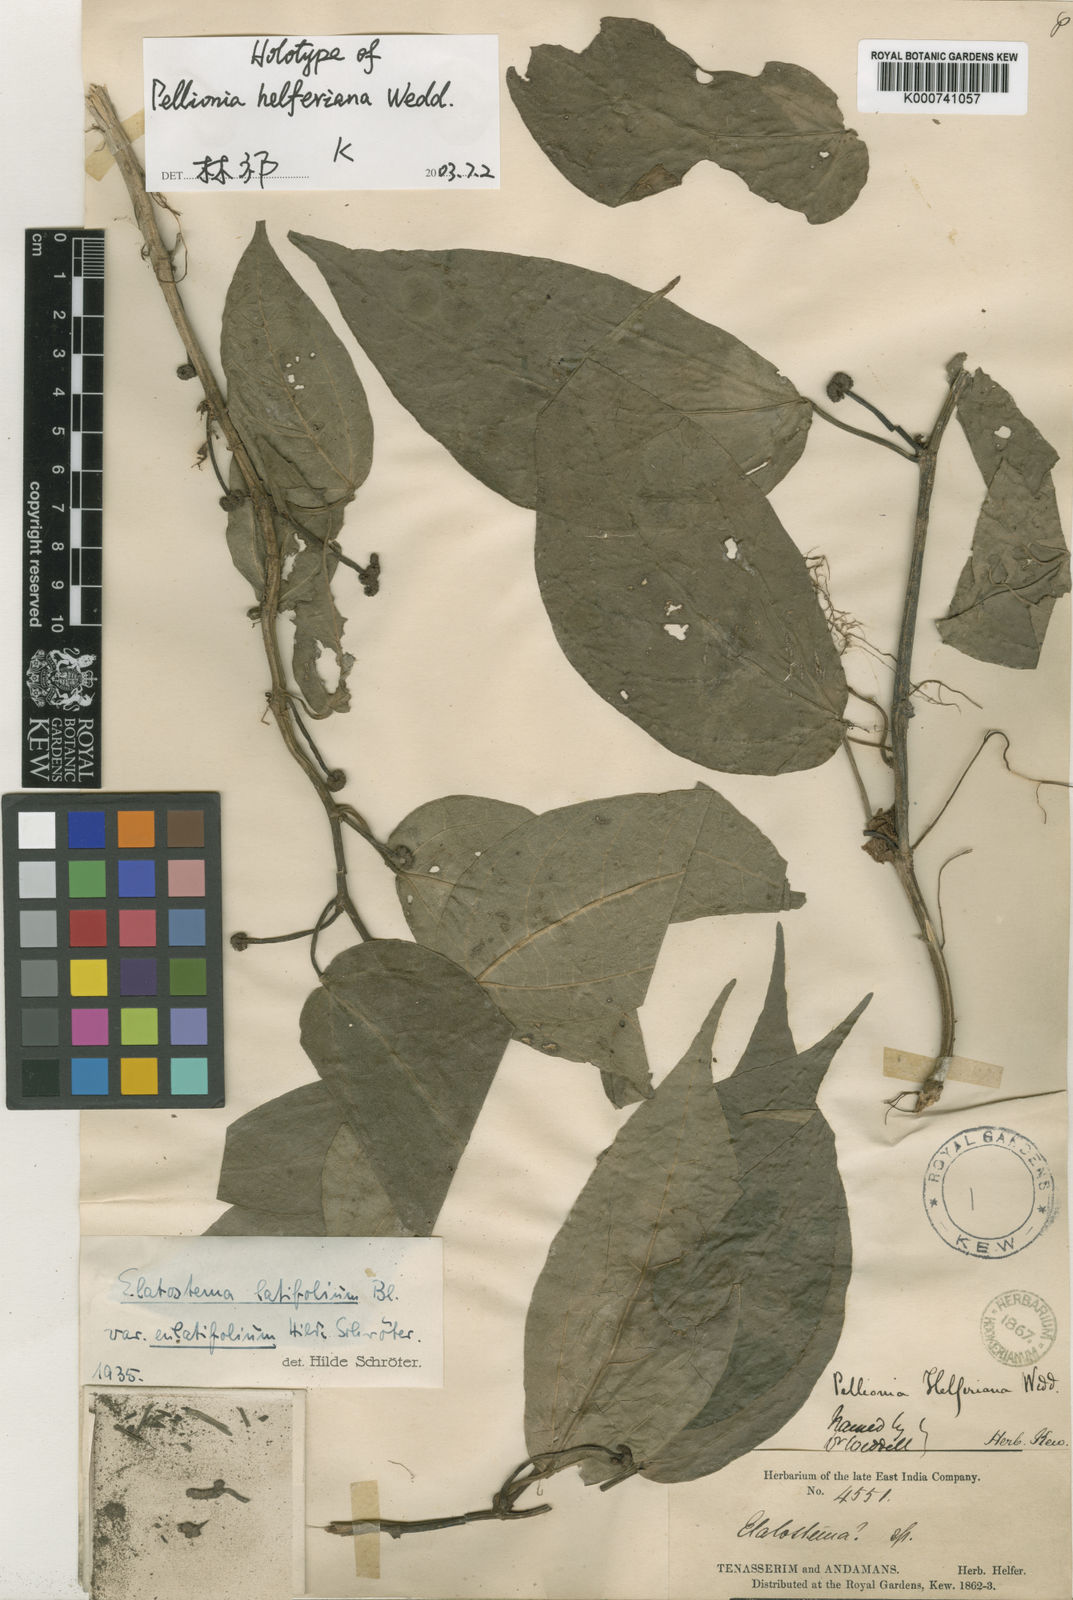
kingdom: Plantae
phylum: Tracheophyta
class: Magnoliopsida
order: Rosales
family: Urticaceae
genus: Elatostema
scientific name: Elatostema latifolium
